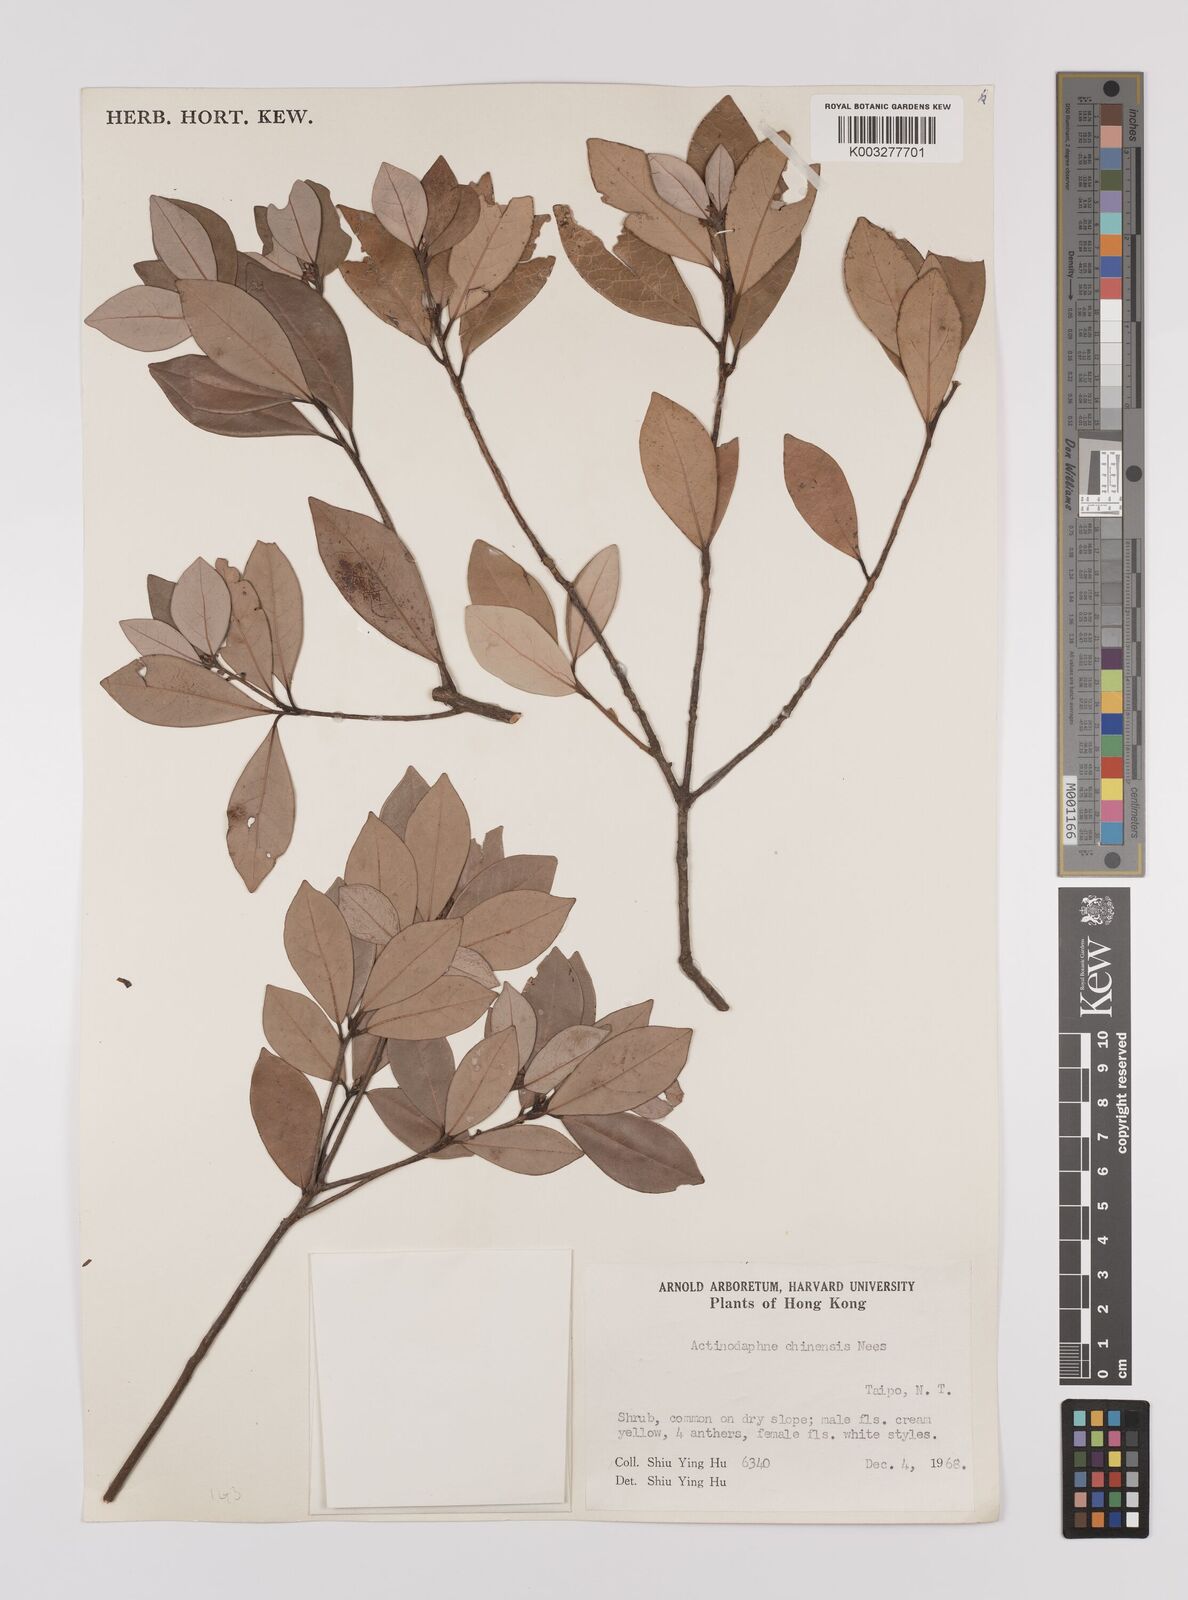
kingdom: Plantae
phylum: Tracheophyta
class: Magnoliopsida
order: Laurales
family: Lauraceae
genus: Litsea
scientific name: Litsea rotundifolia
